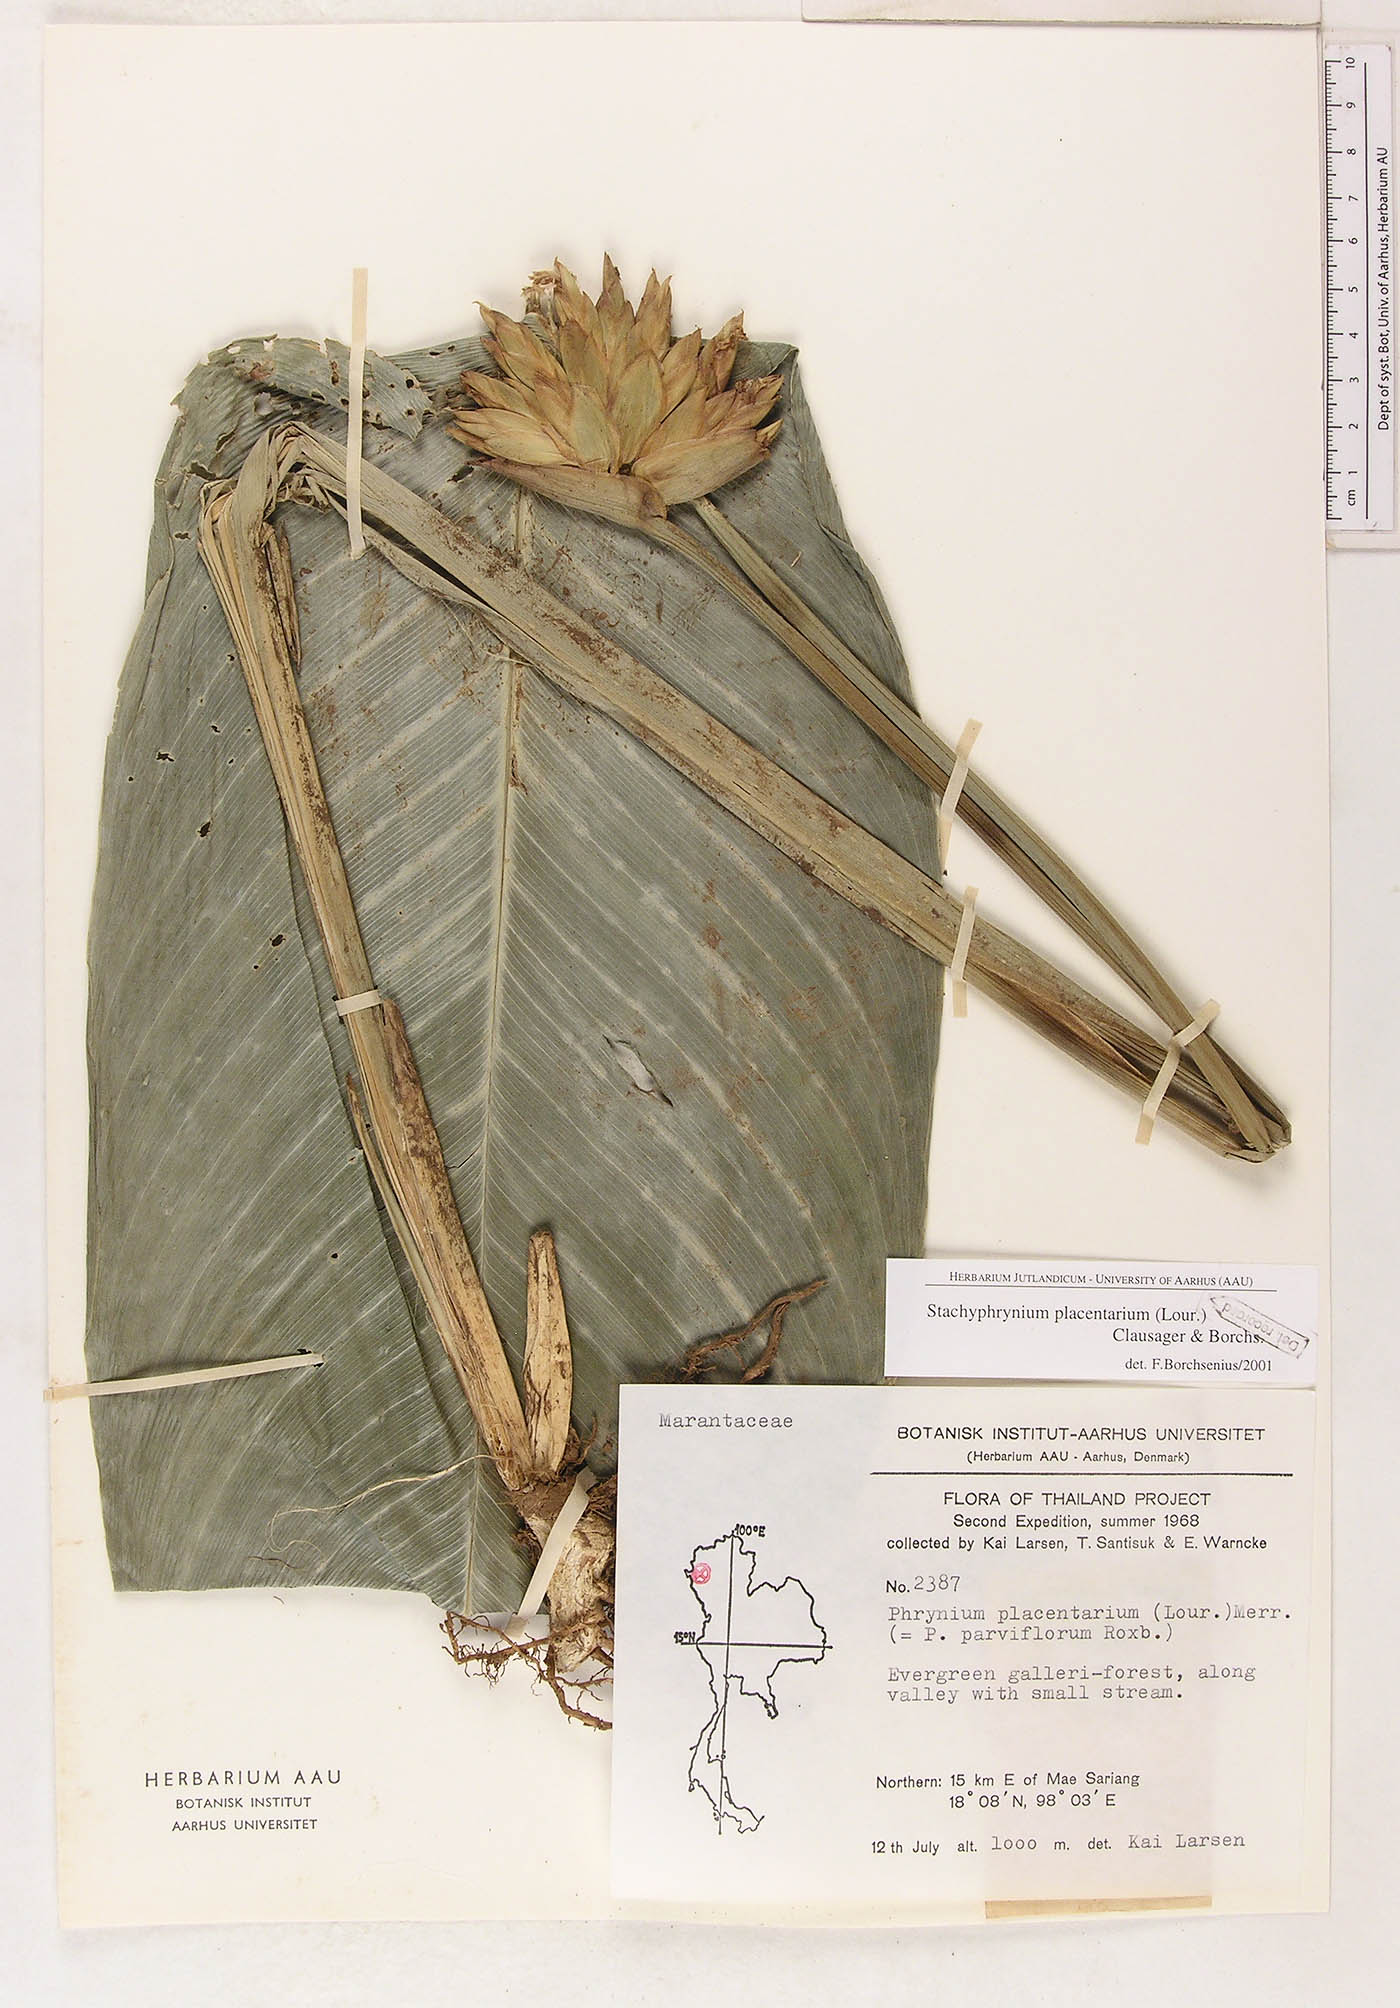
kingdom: Plantae
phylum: Tracheophyta
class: Liliopsida
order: Zingiberales
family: Marantaceae
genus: Stachyphrynium
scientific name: Stachyphrynium placentarium
